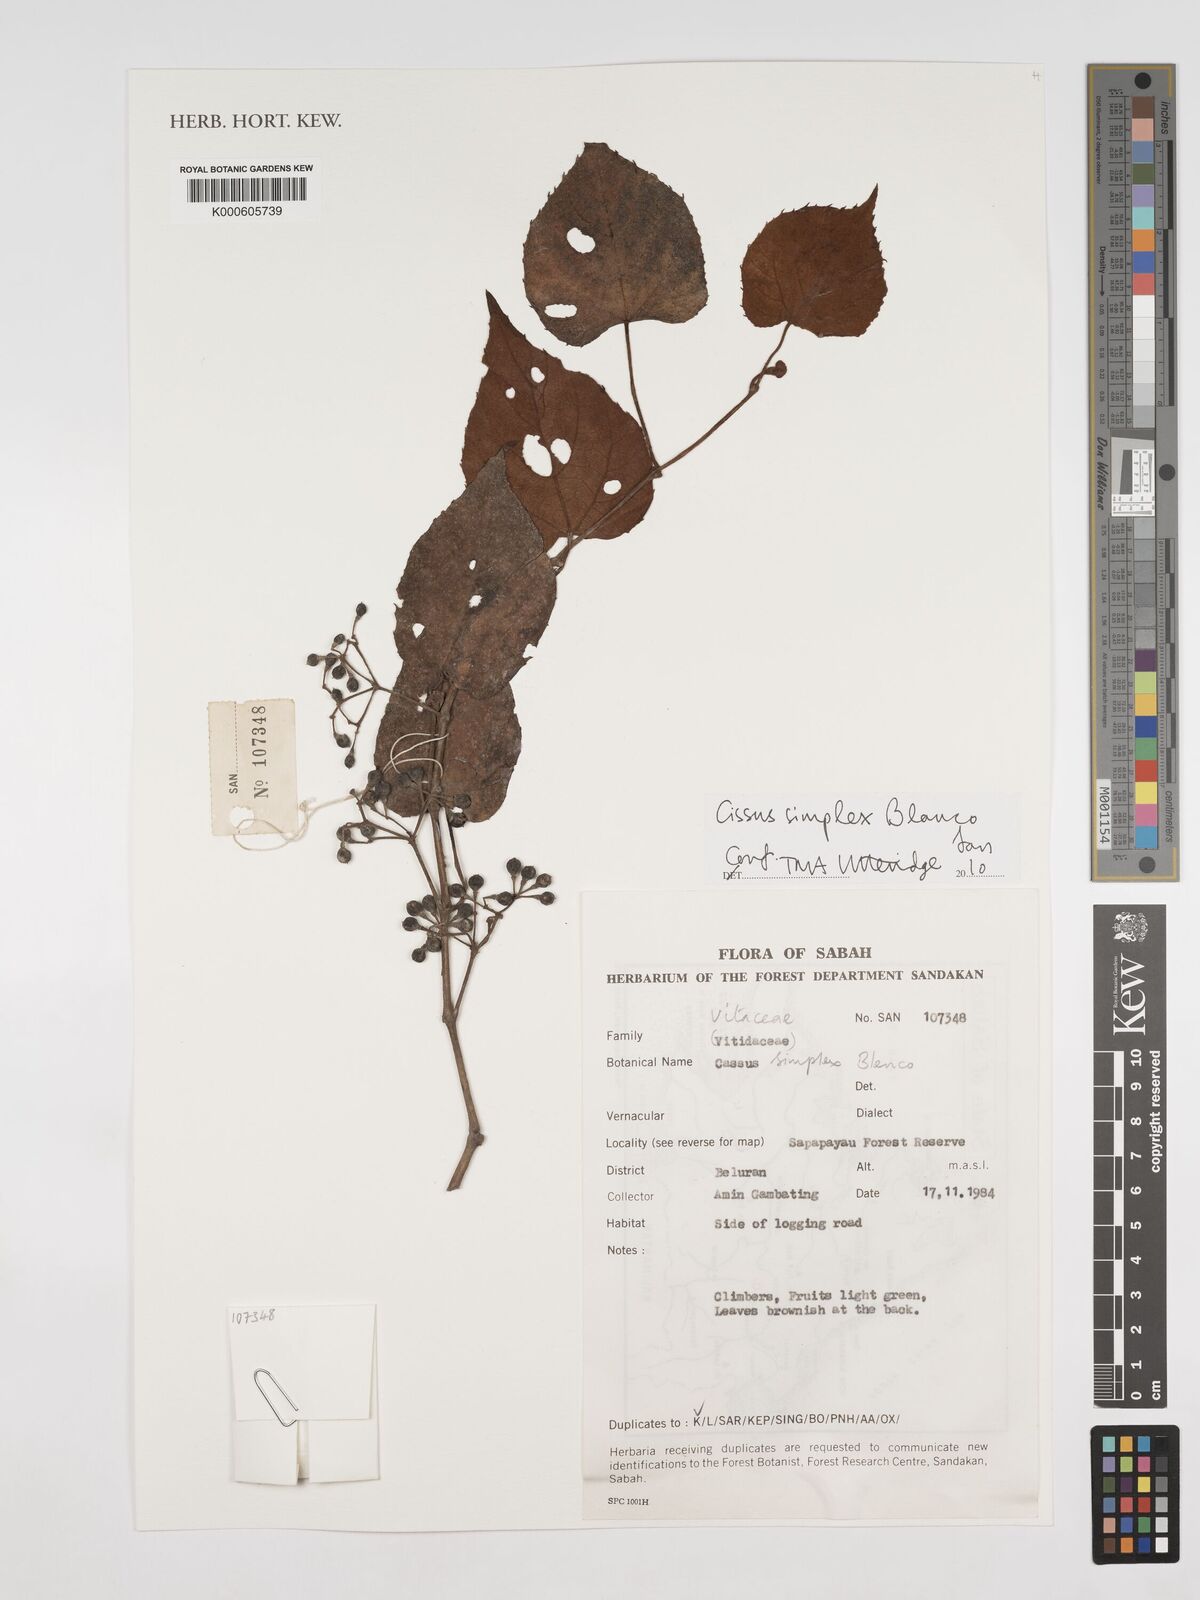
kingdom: Plantae
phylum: Tracheophyta
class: Magnoliopsida
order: Vitales
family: Vitaceae
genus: Cissus
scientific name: Cissus aristata
